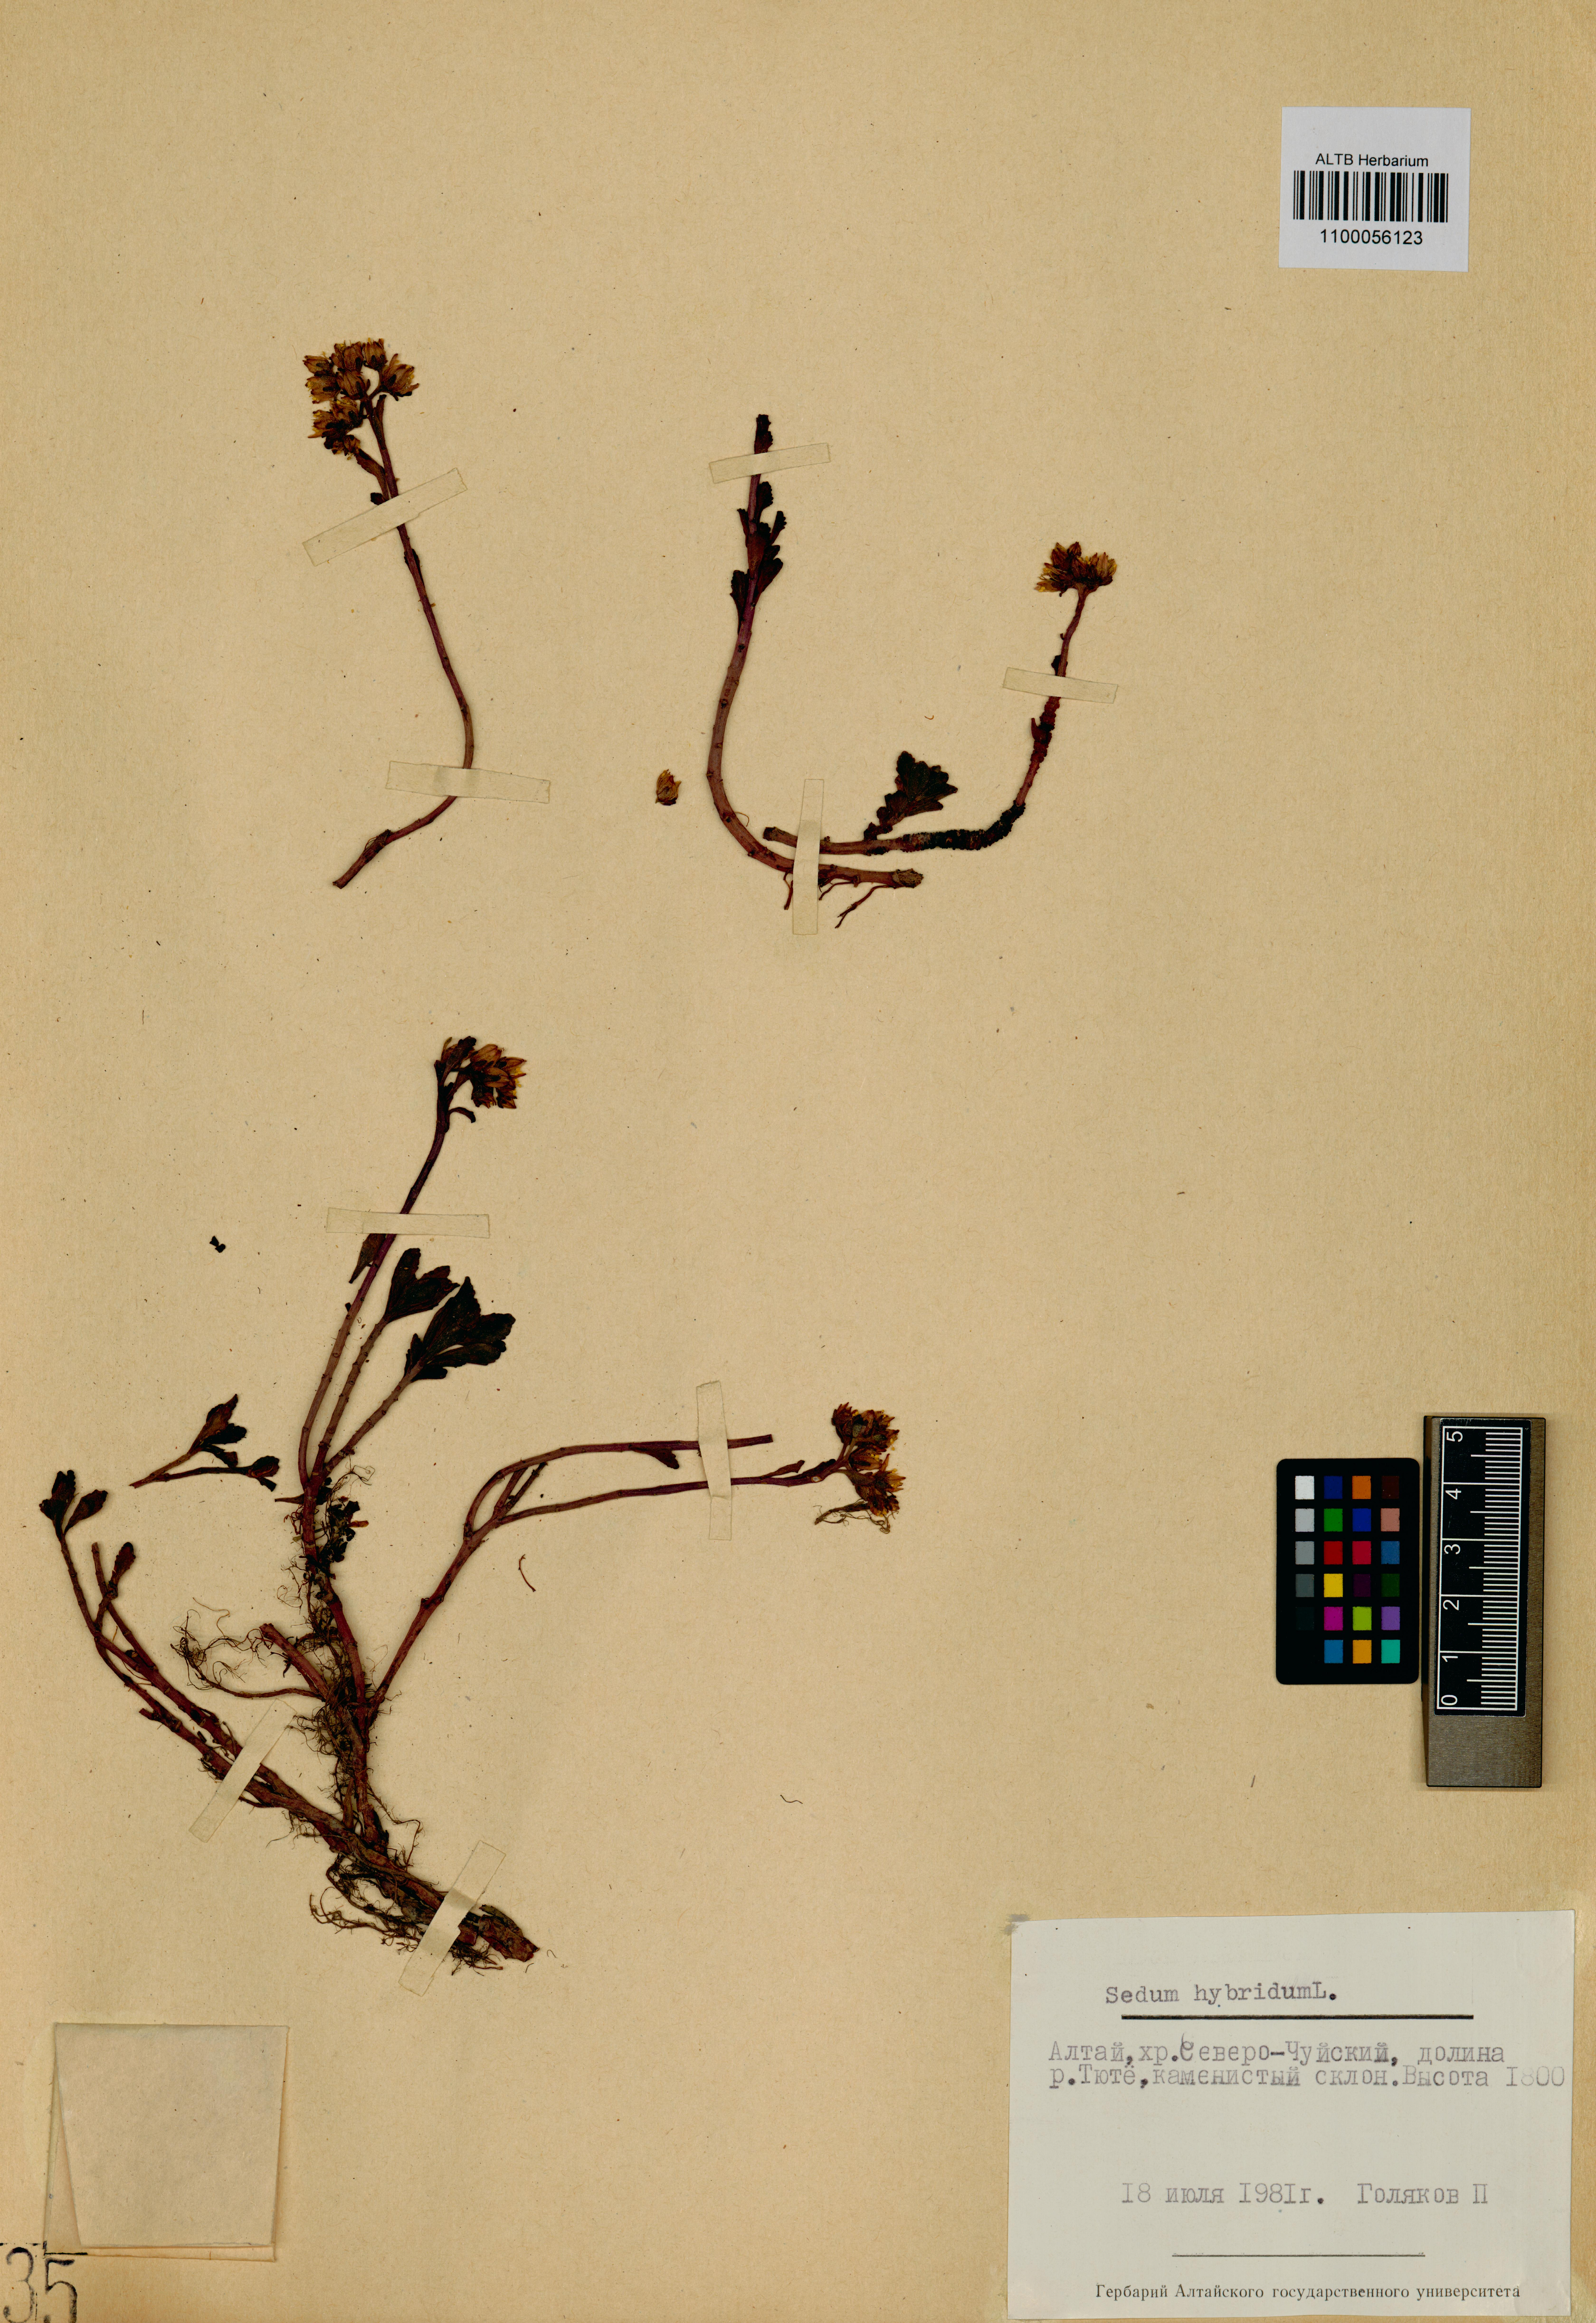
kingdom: Plantae
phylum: Tracheophyta
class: Magnoliopsida
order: Saxifragales
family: Crassulaceae
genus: Phedimus
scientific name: Phedimus hybridus
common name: Hybrid stonecrop
